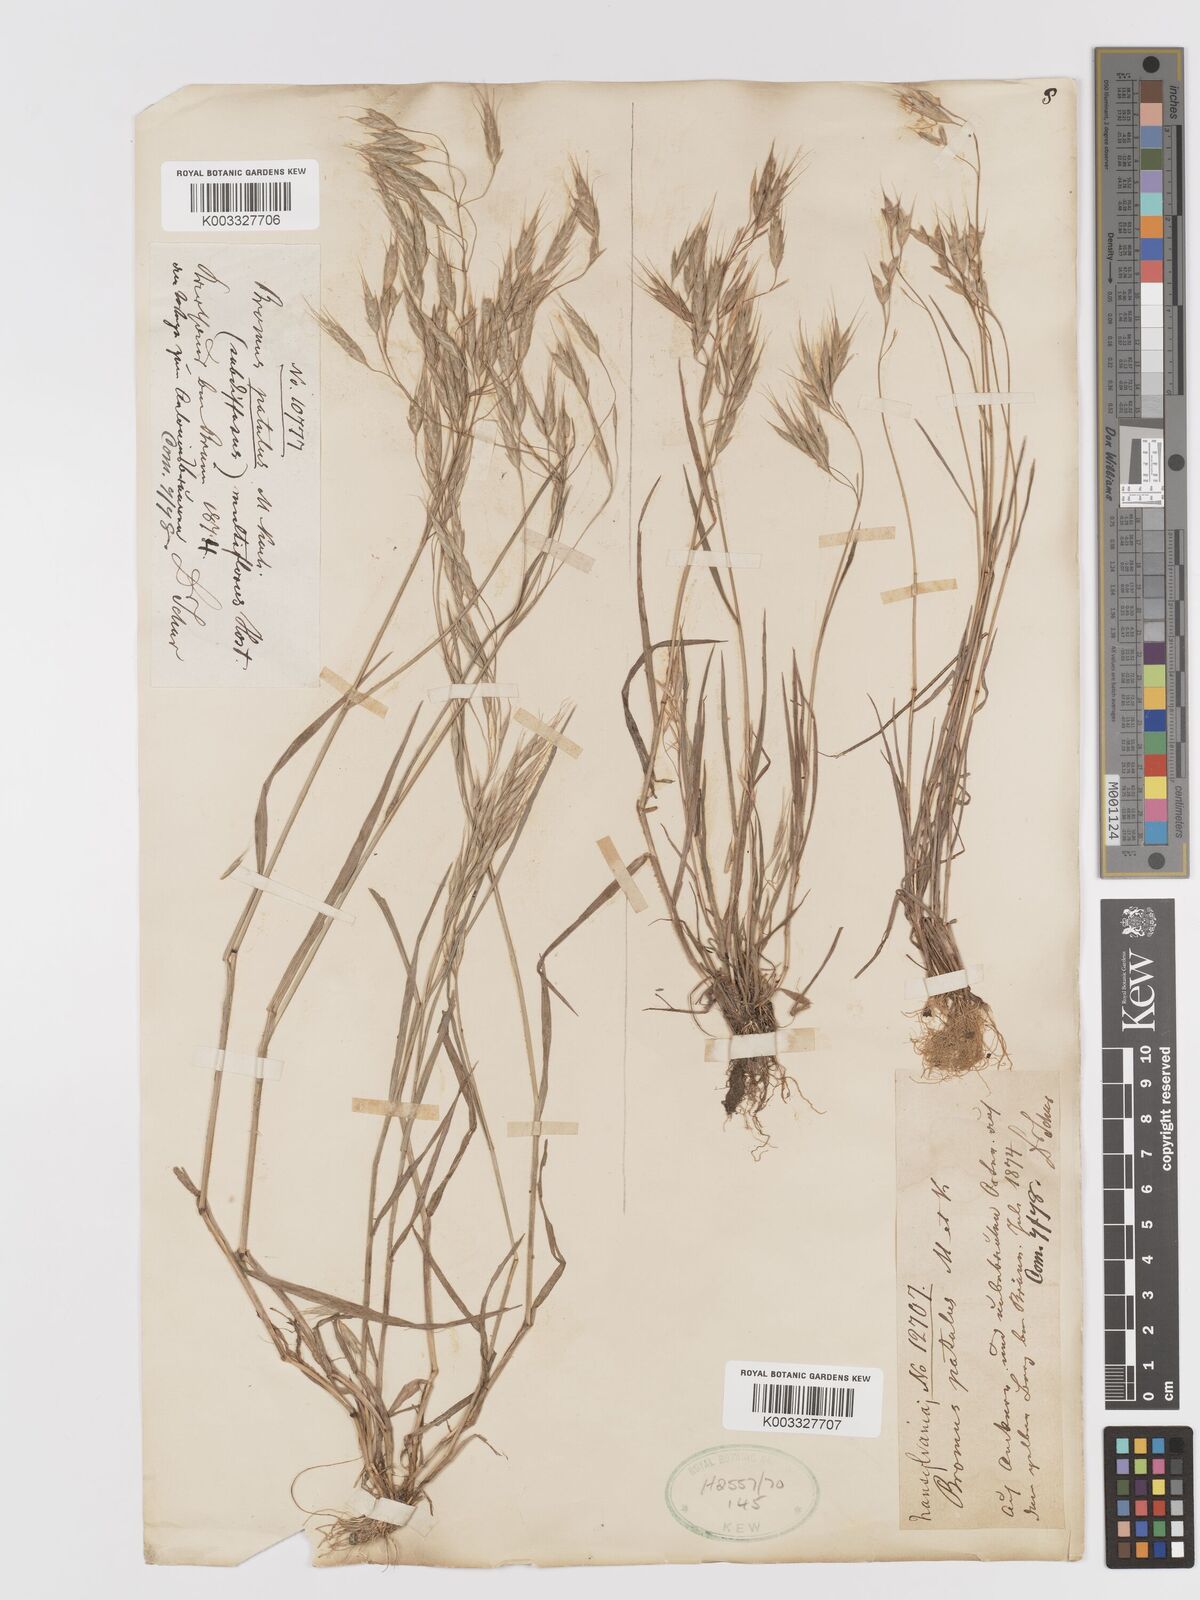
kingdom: Plantae
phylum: Tracheophyta
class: Liliopsida
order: Poales
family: Poaceae
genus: Bromus
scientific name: Bromus japonicus
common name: Japanese brome
